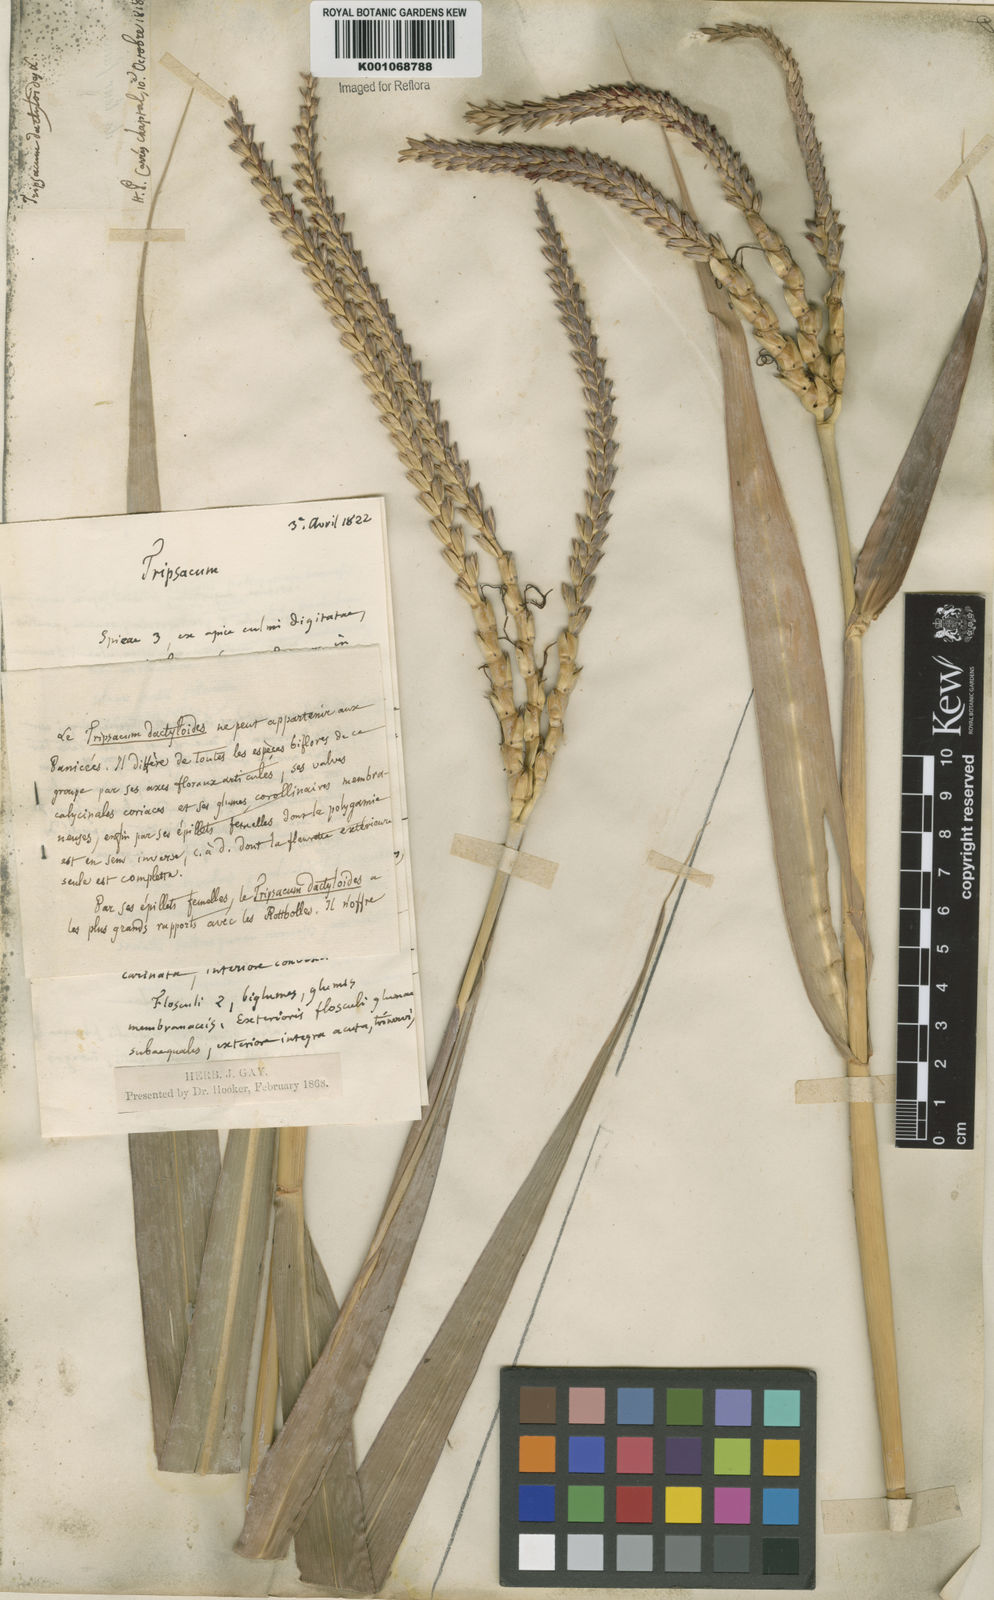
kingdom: Plantae
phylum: Tracheophyta
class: Liliopsida
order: Poales
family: Poaceae
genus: Tripsacum
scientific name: Tripsacum australe
